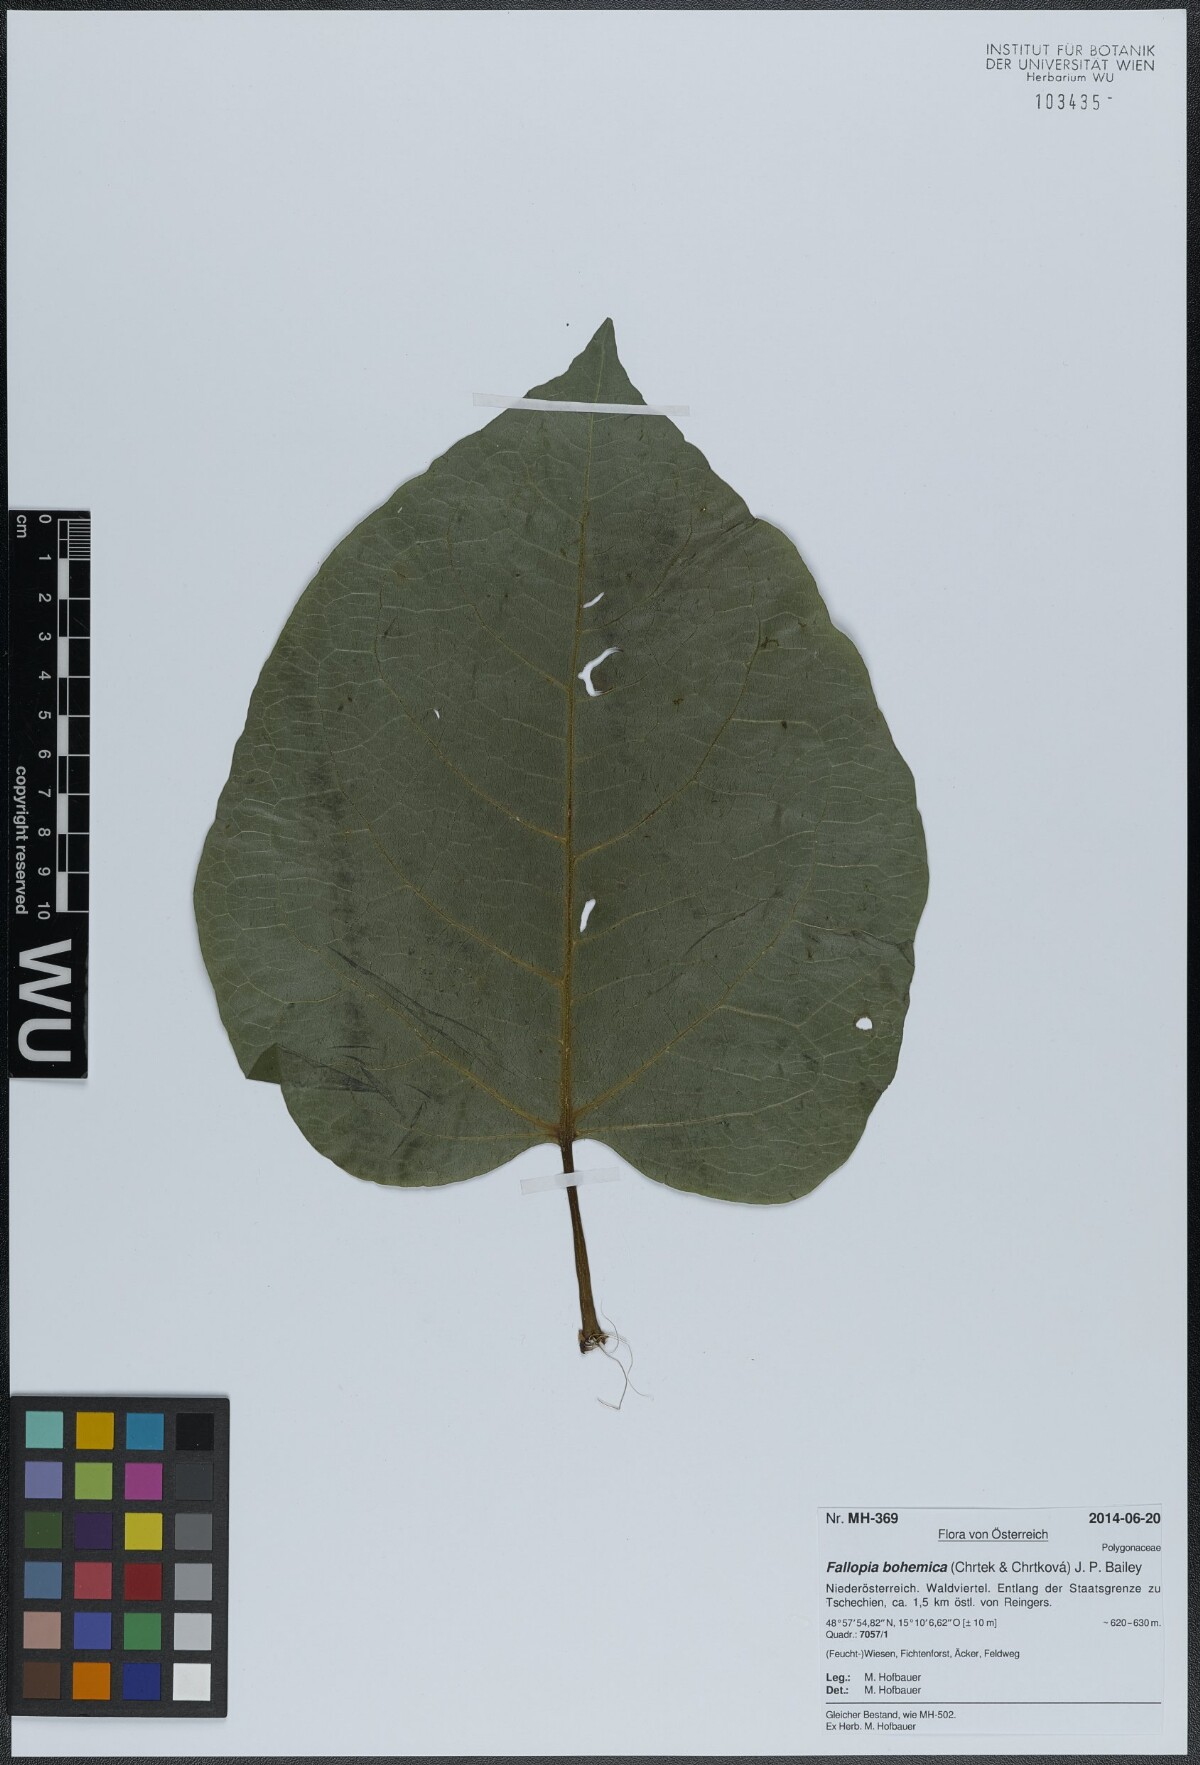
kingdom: Plantae
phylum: Tracheophyta
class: Magnoliopsida
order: Caryophyllales
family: Polygonaceae
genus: Reynoutria
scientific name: Reynoutria bohemica
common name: Bohemian knotweed
